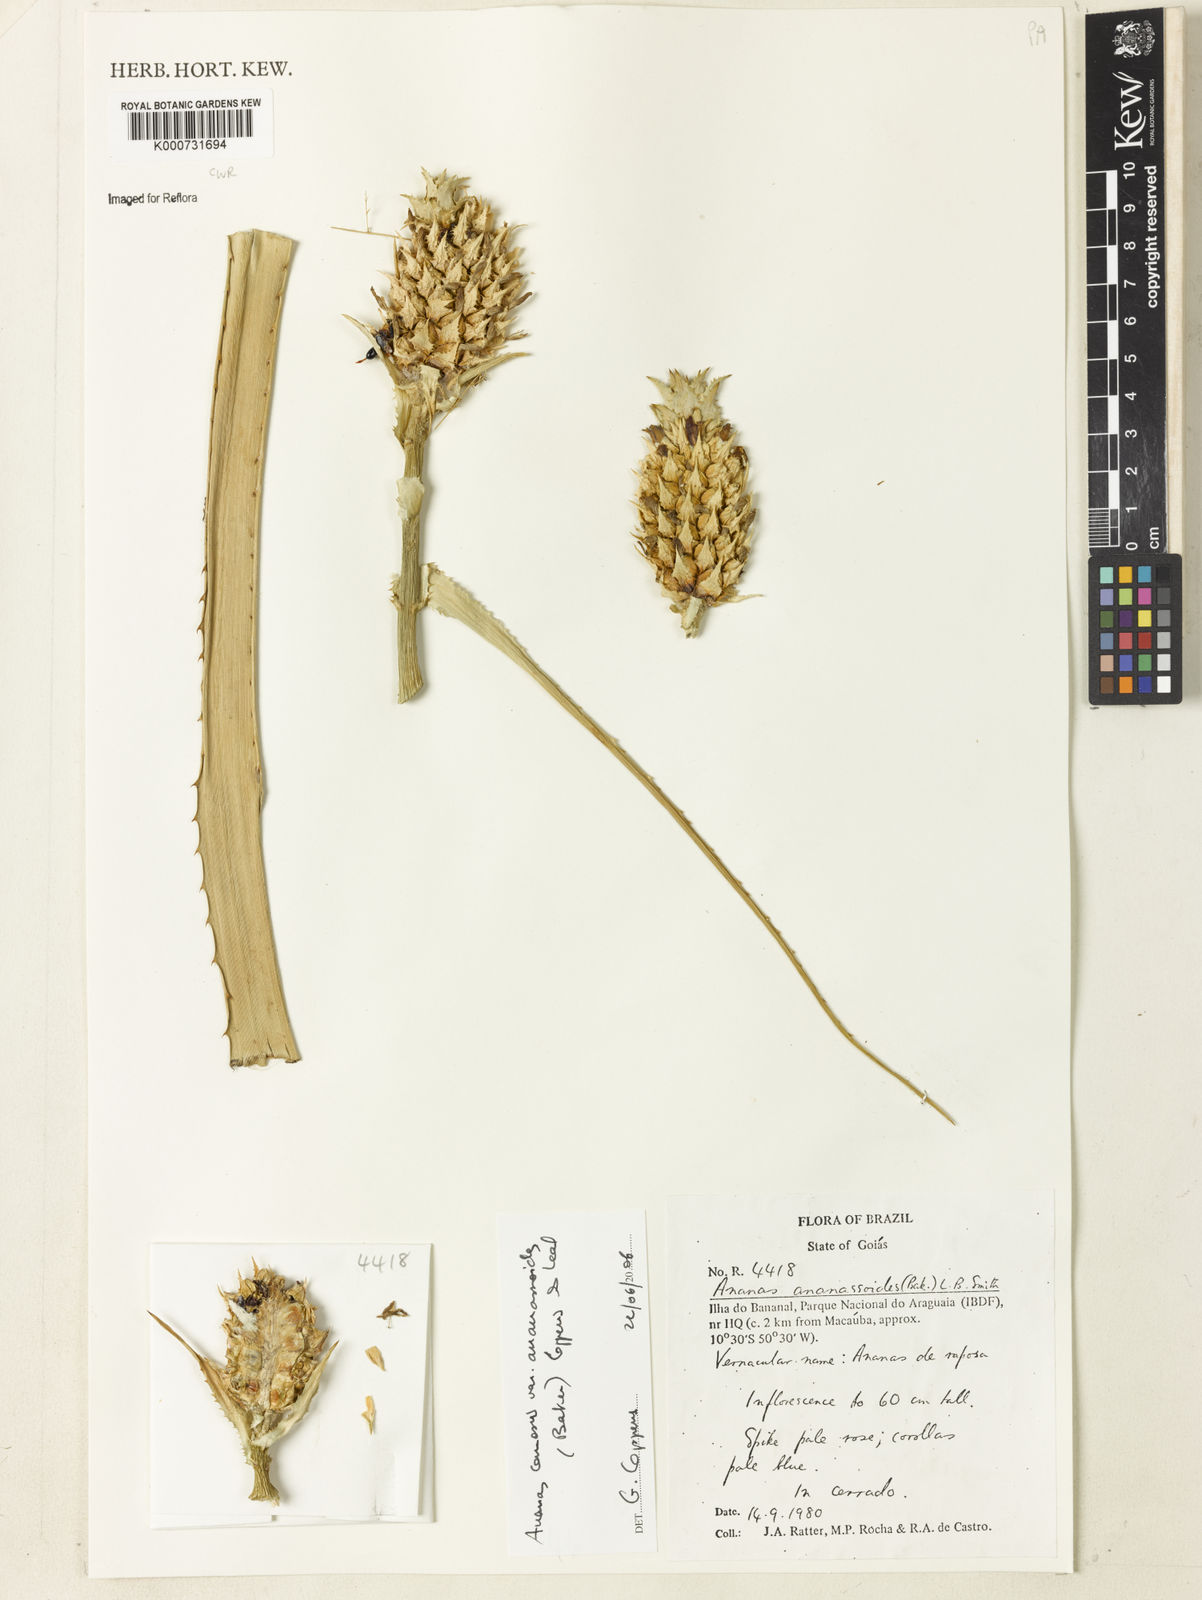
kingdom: Plantae
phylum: Tracheophyta
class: Liliopsida
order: Poales
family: Bromeliaceae
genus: Ananas
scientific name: Ananas comosus
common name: Pineapple
